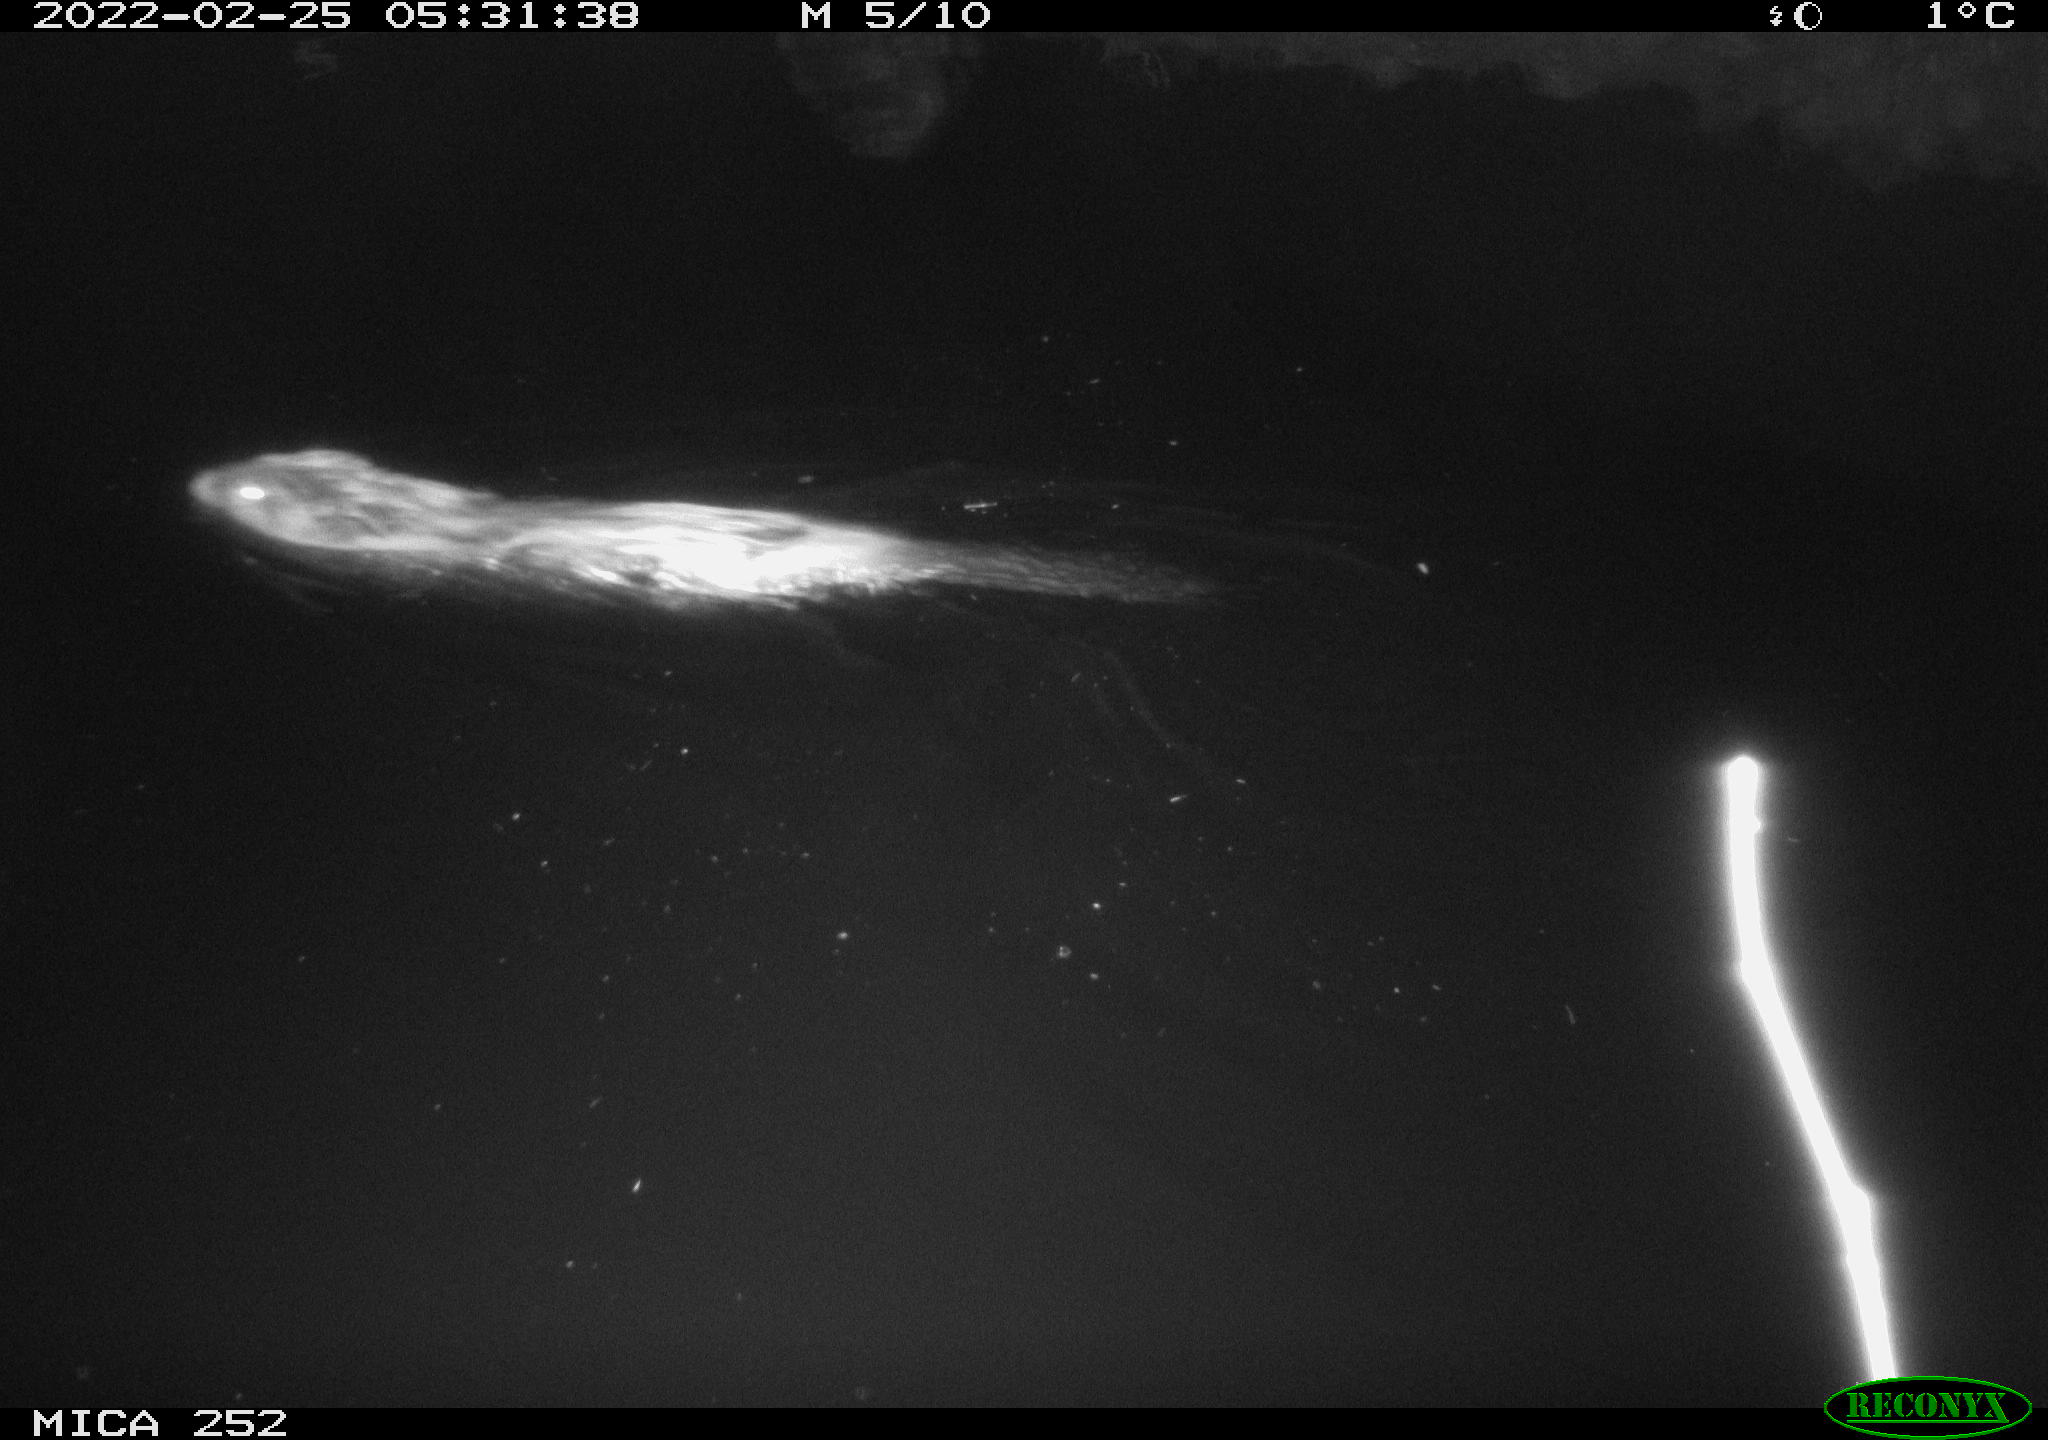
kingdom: Animalia
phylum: Chordata
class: Mammalia
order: Rodentia
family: Castoridae
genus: Castor
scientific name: Castor fiber
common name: Eurasian beaver
